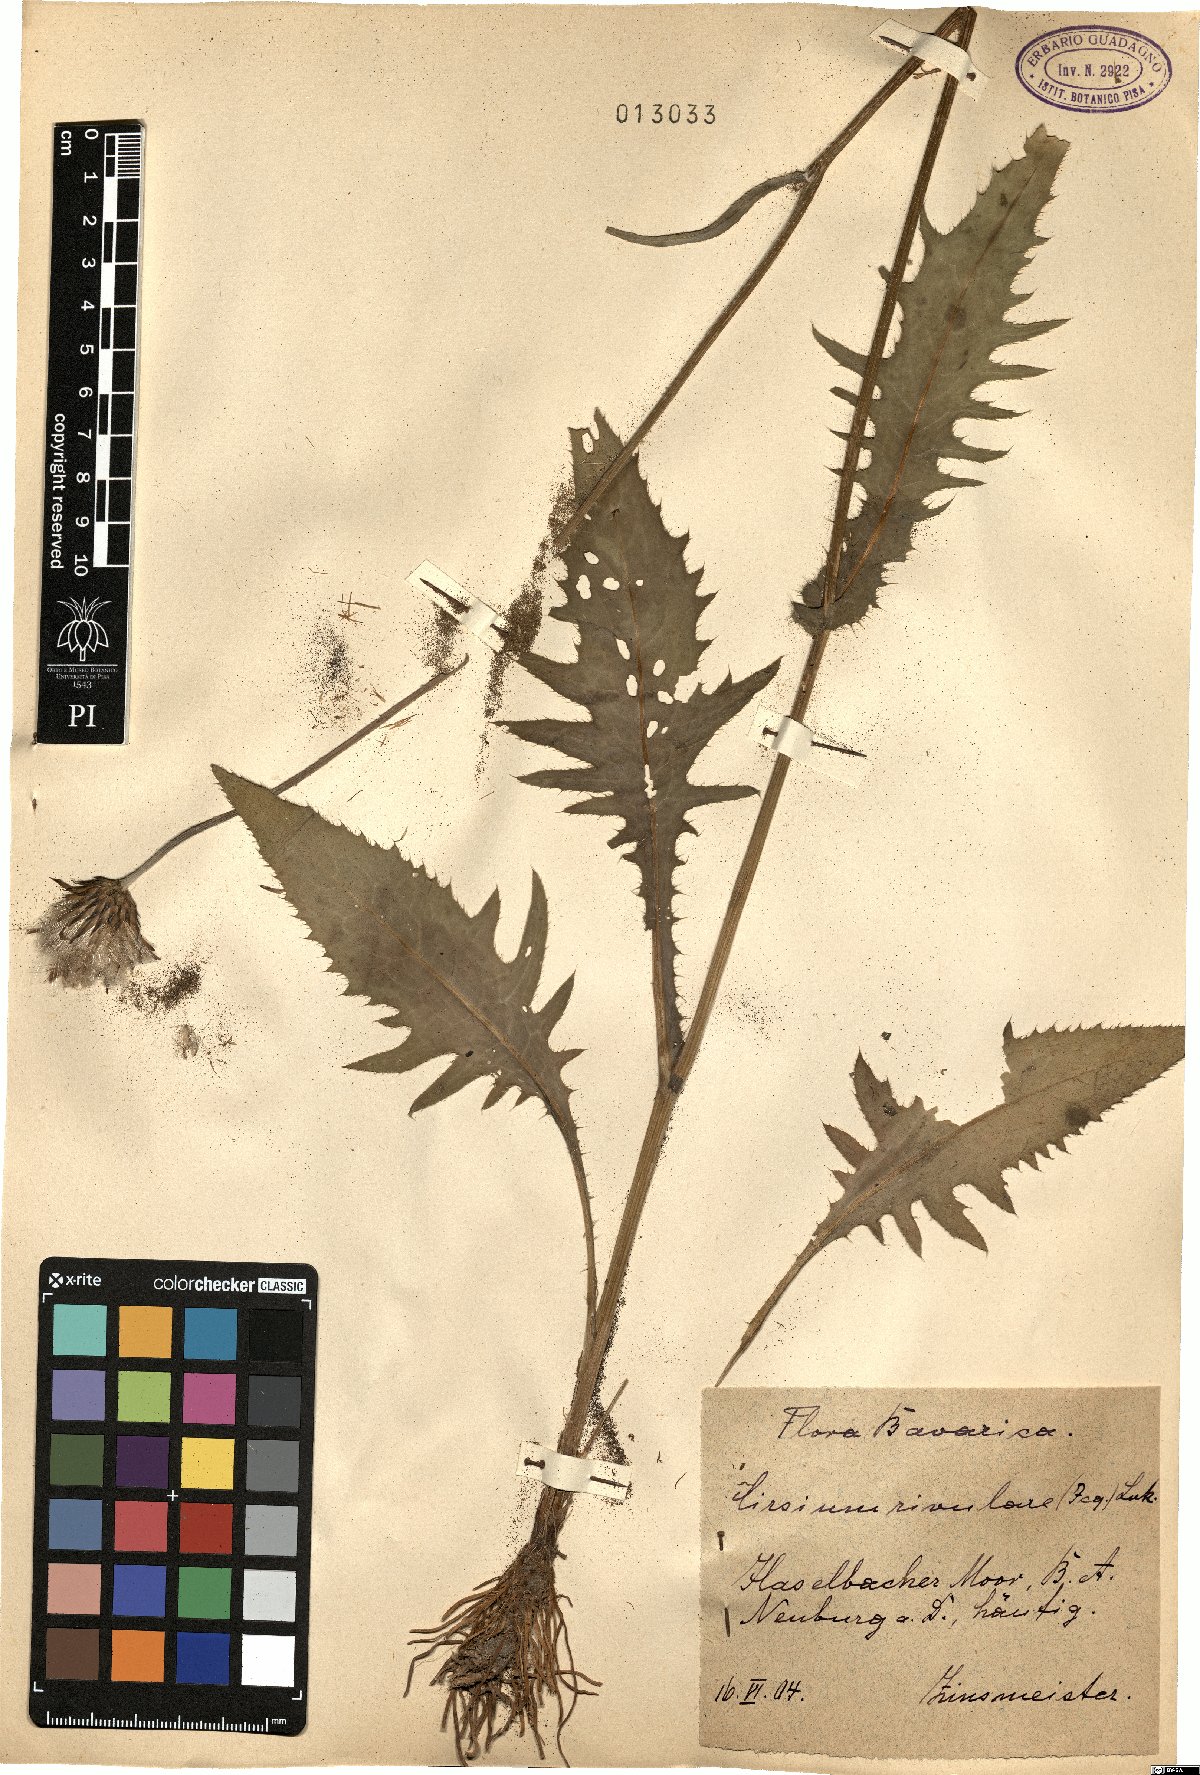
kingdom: Plantae
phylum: Tracheophyta
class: Magnoliopsida
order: Asterales
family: Asteraceae
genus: Cirsium
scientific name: Cirsium rivulare
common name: Brook thistle
